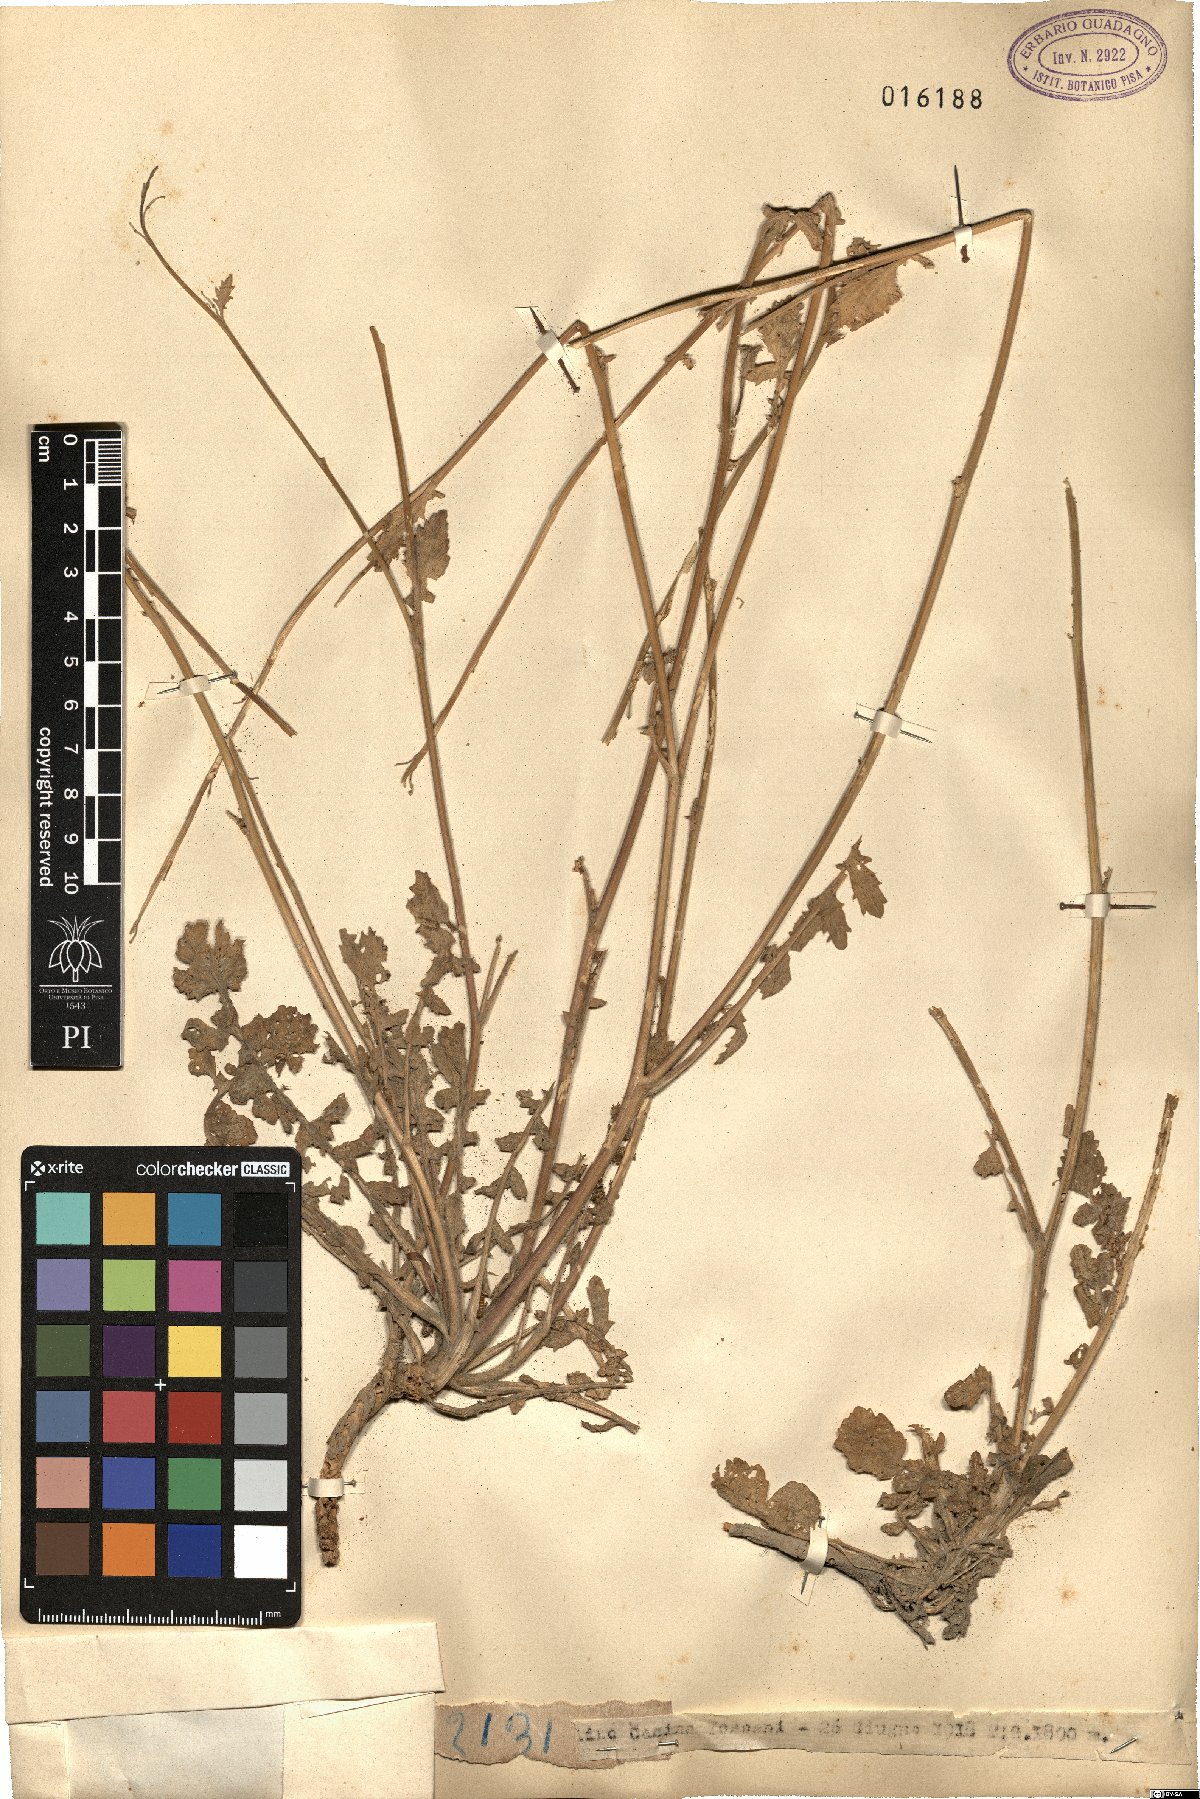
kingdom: Plantae
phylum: Tracheophyta
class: Magnoliopsida
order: Brassicales
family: Brassicaceae
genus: Brassica
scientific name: Brassica
